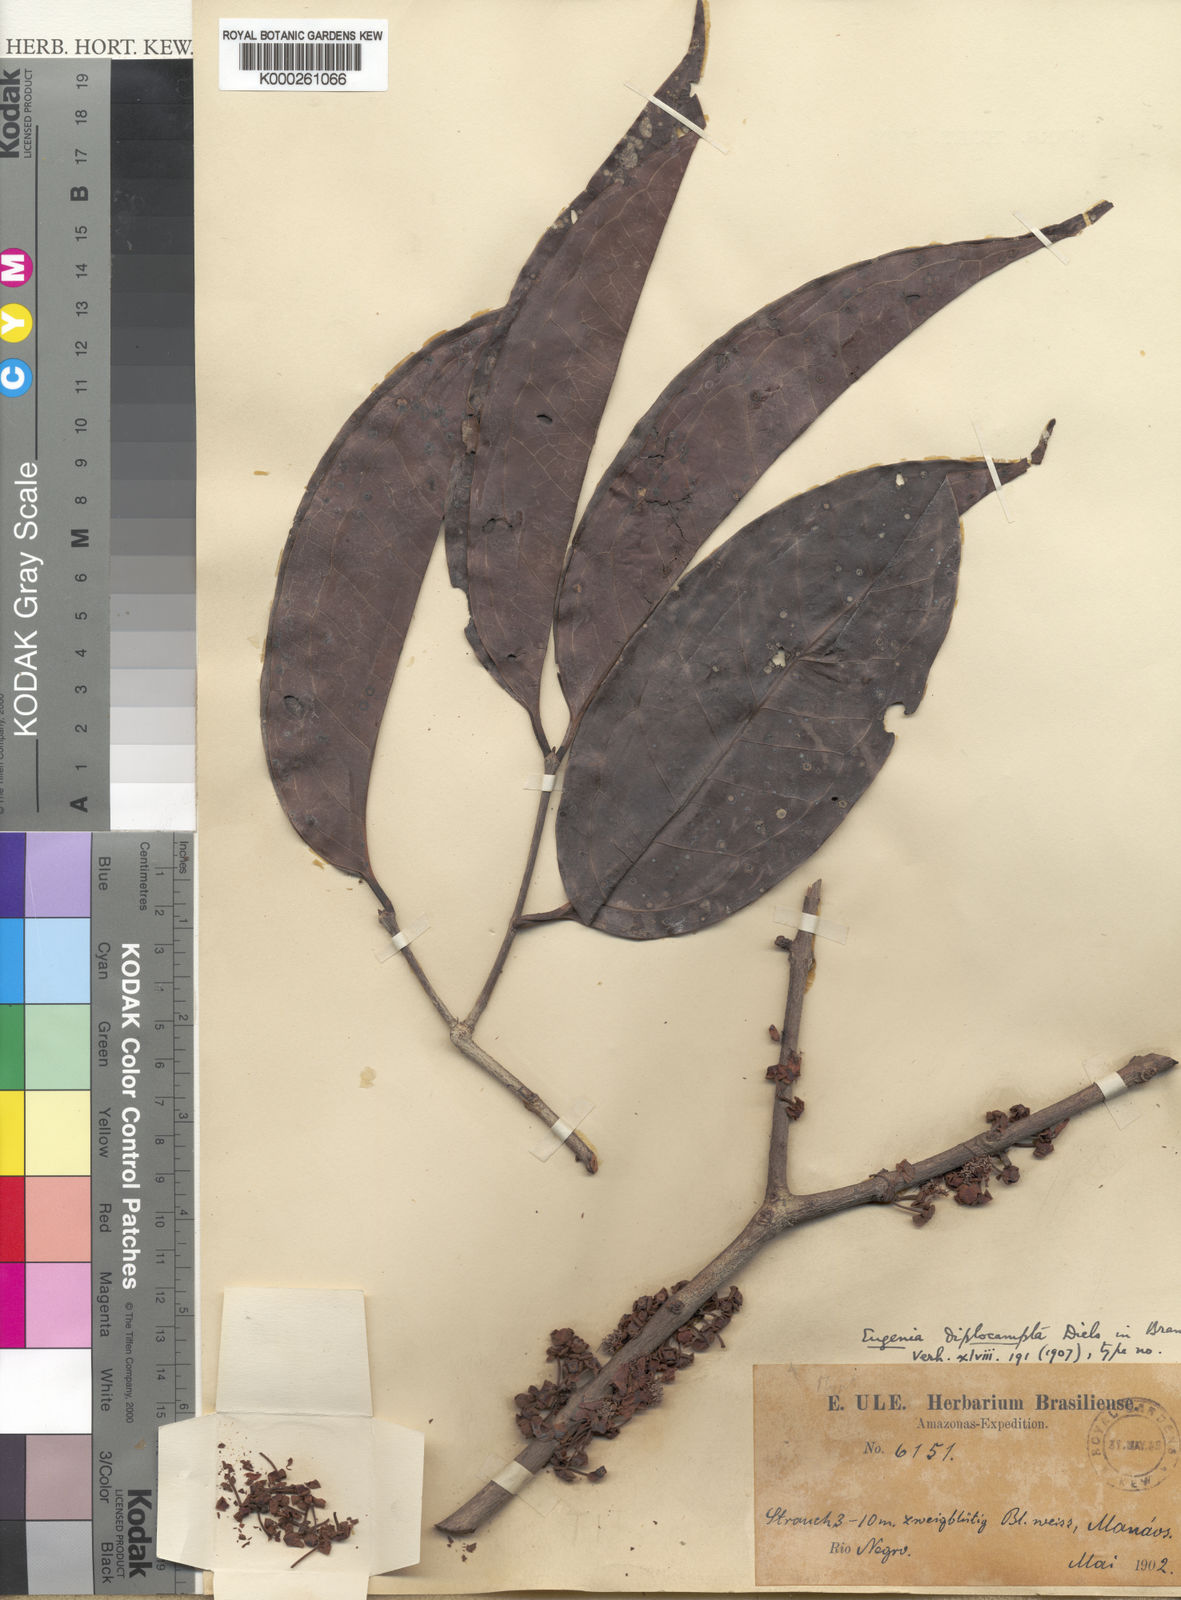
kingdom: Plantae
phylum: Tracheophyta
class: Magnoliopsida
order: Myrtales
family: Myrtaceae
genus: Eugenia
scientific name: Eugenia solimoensis
